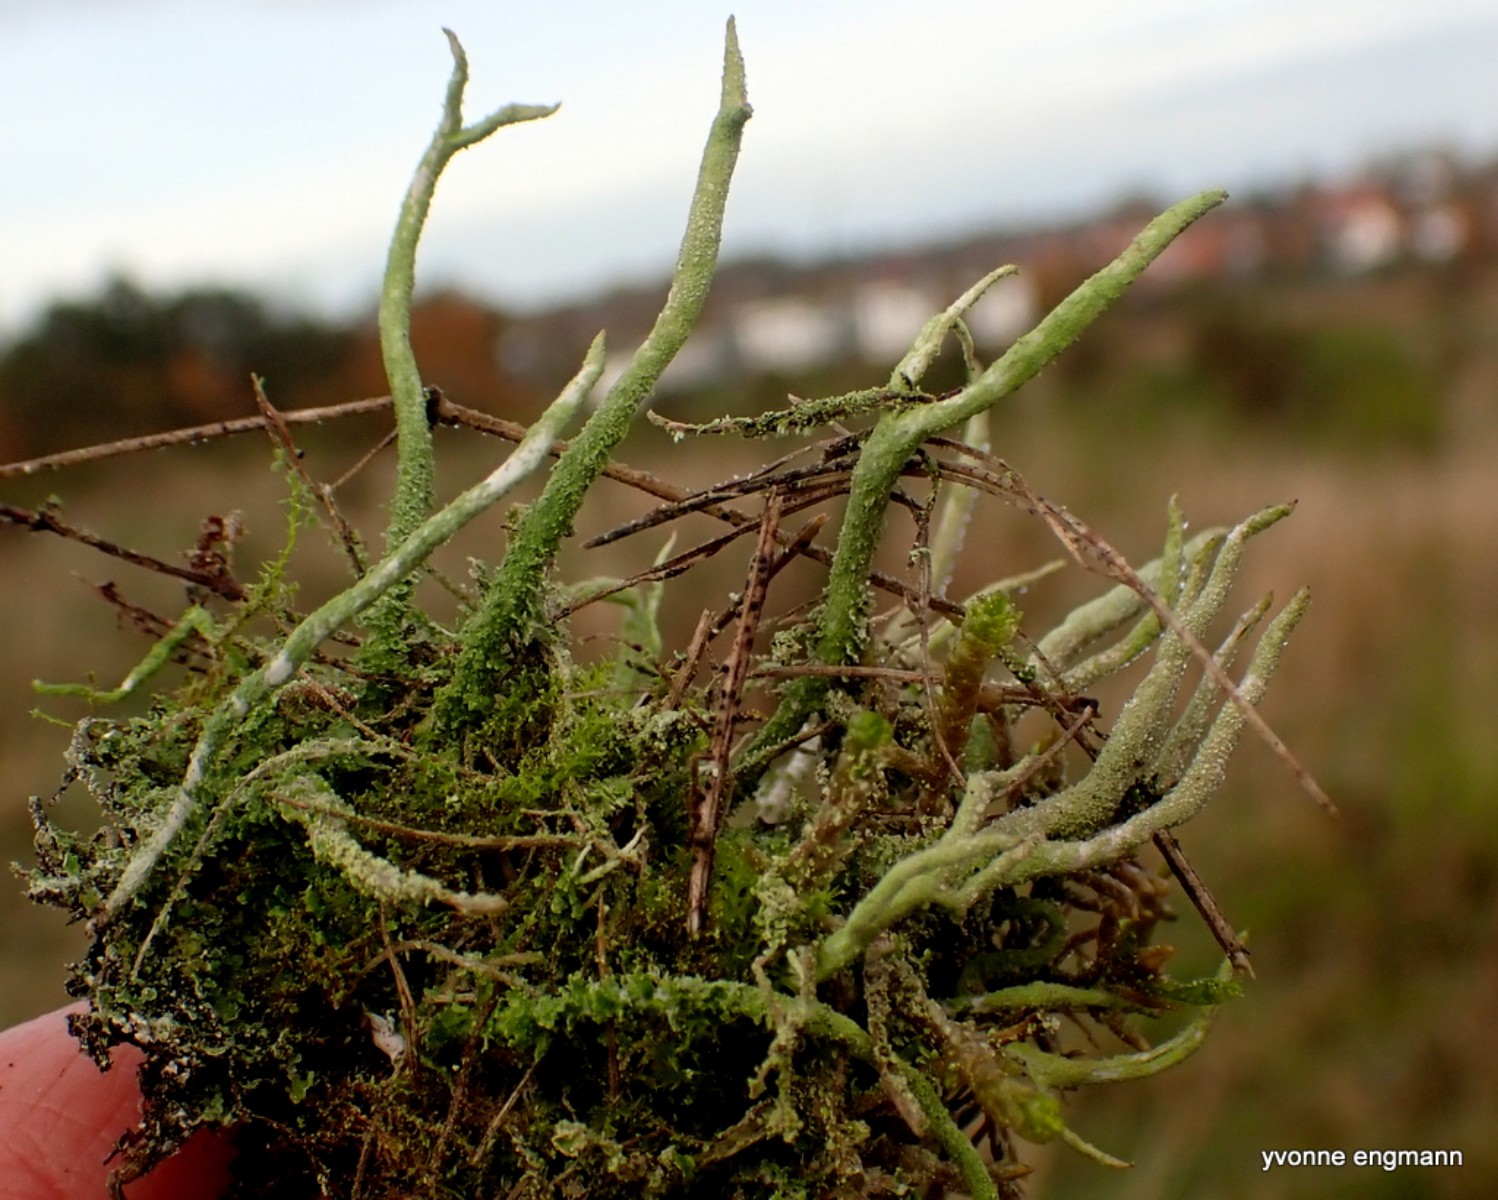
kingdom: Fungi
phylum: Ascomycota
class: Lecanoromycetes
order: Lecanorales
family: Cladoniaceae
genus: Cladonia
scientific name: Cladonia
